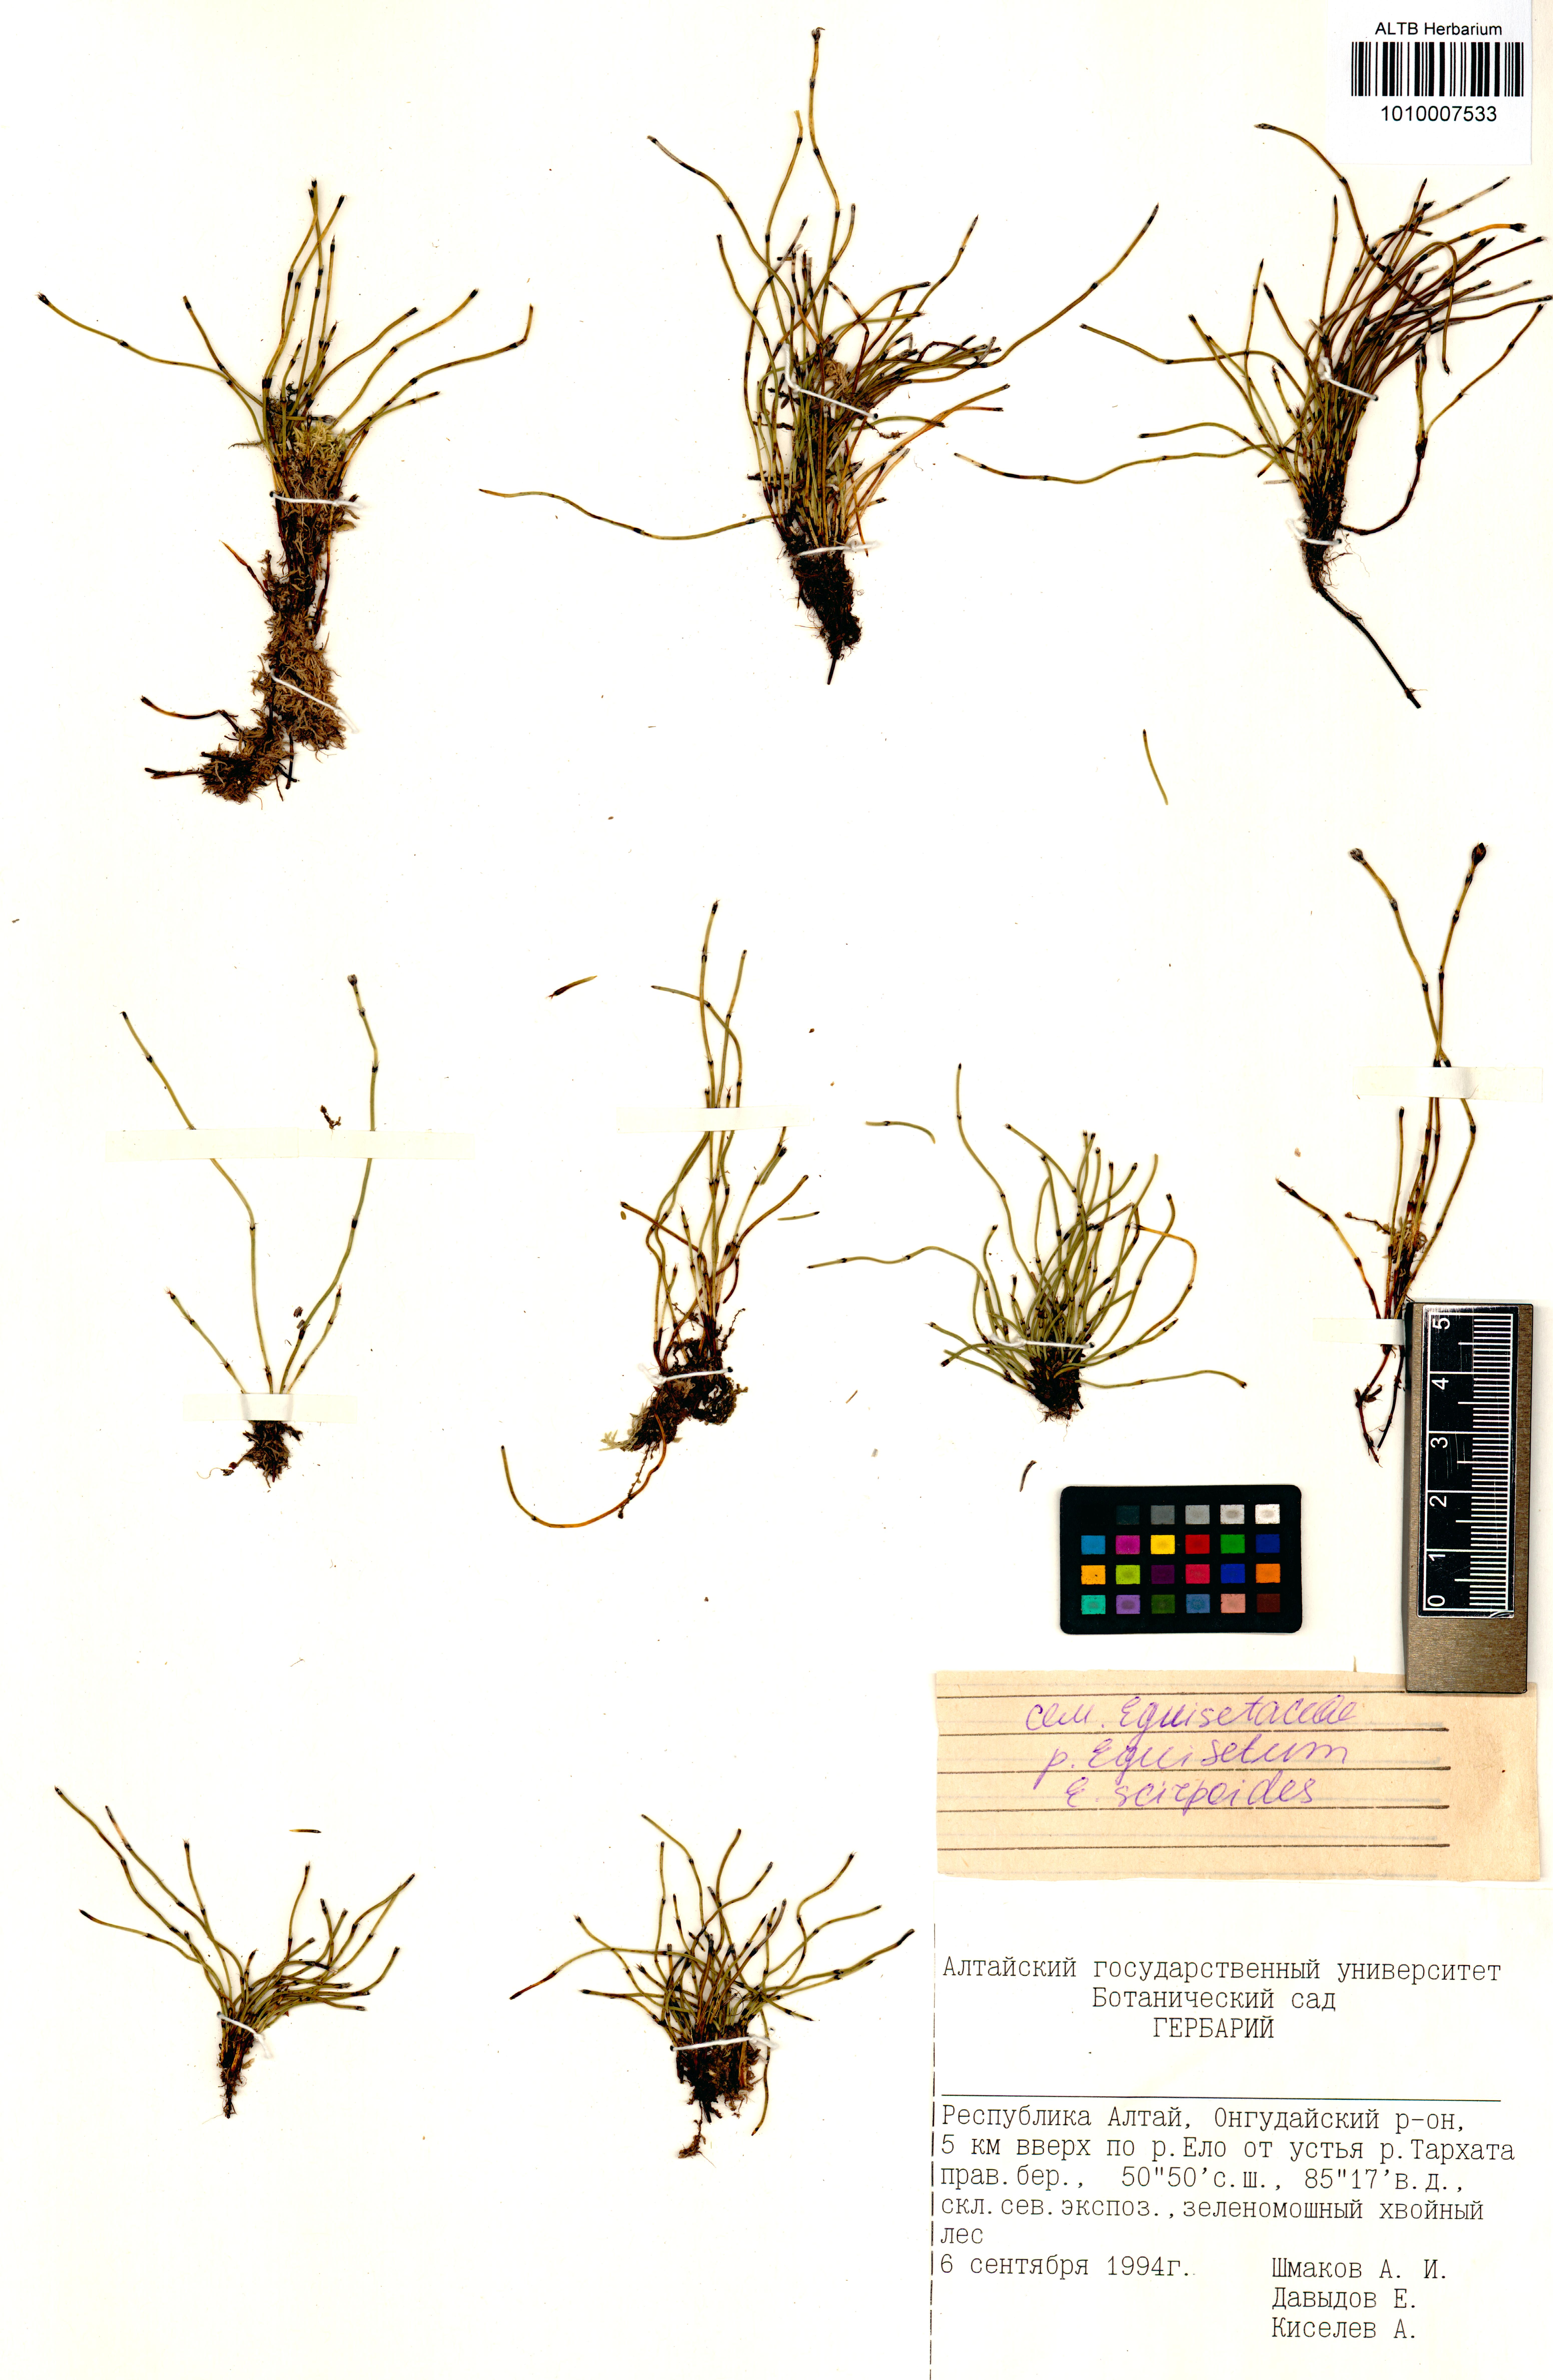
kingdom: Plantae
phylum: Tracheophyta
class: Polypodiopsida
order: Equisetales
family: Equisetaceae
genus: Equisetum
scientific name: Equisetum scirpoides
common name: Delicate horsetail
